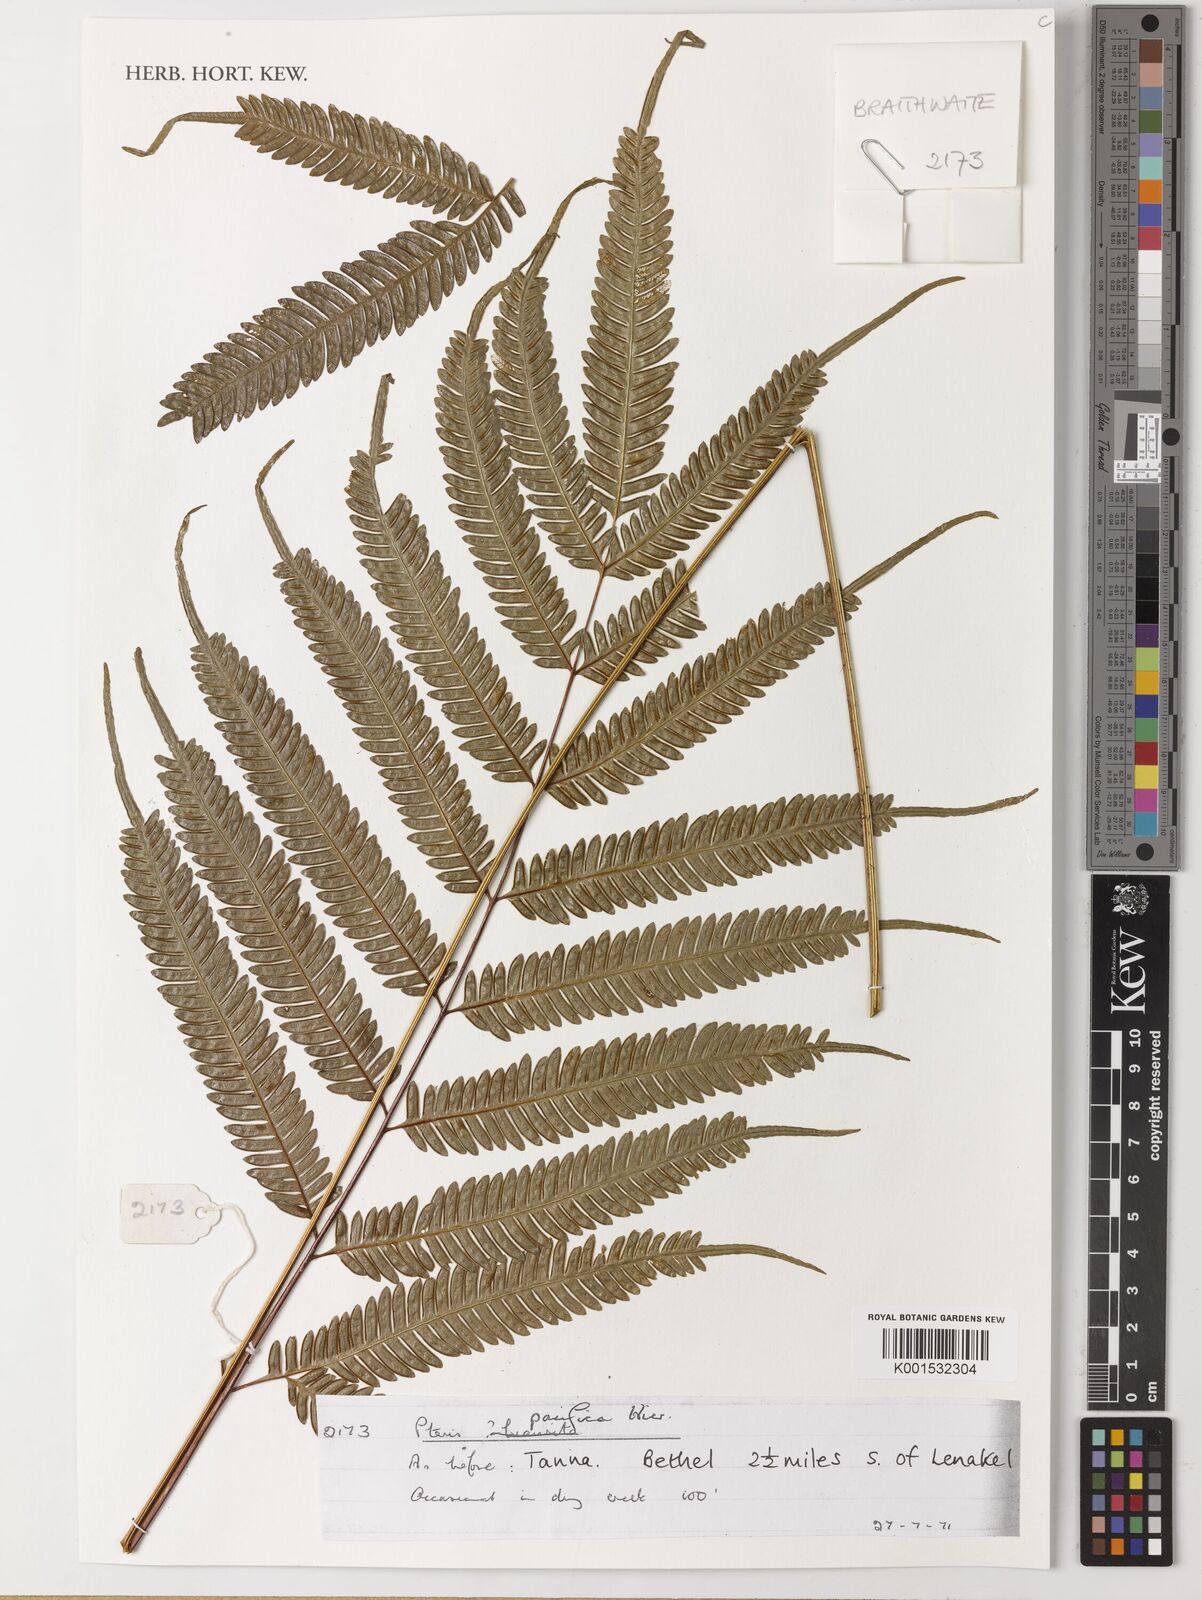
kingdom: Plantae
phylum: Tracheophyta
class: Polypodiopsida
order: Polypodiales
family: Pteridaceae
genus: Pteris
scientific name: Pteris biaurita
